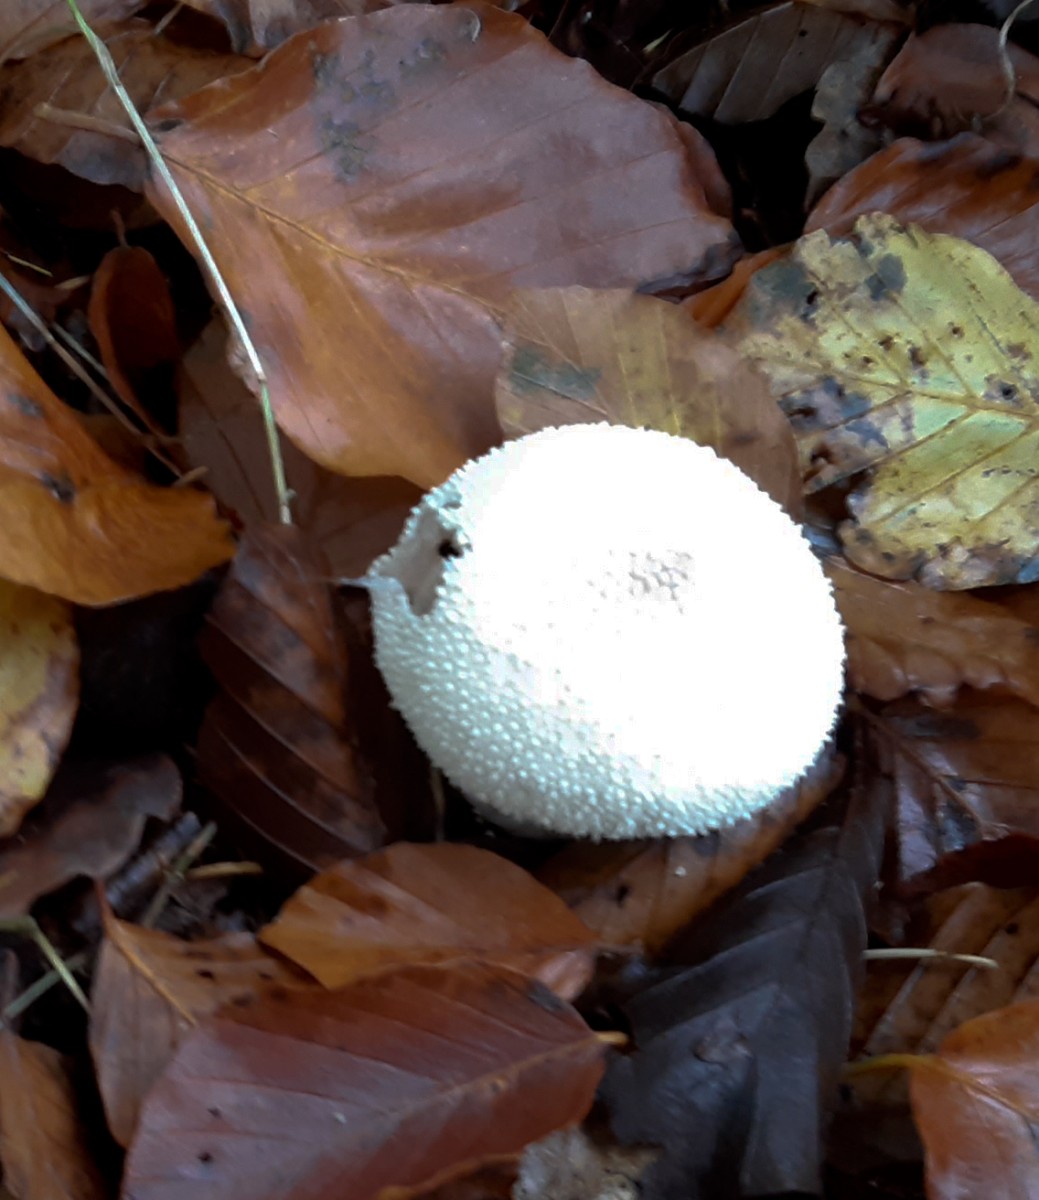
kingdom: Fungi
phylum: Basidiomycota
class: Agaricomycetes
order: Agaricales
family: Lycoperdaceae
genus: Lycoperdon
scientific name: Lycoperdon perlatum
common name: krystal-støvbold
